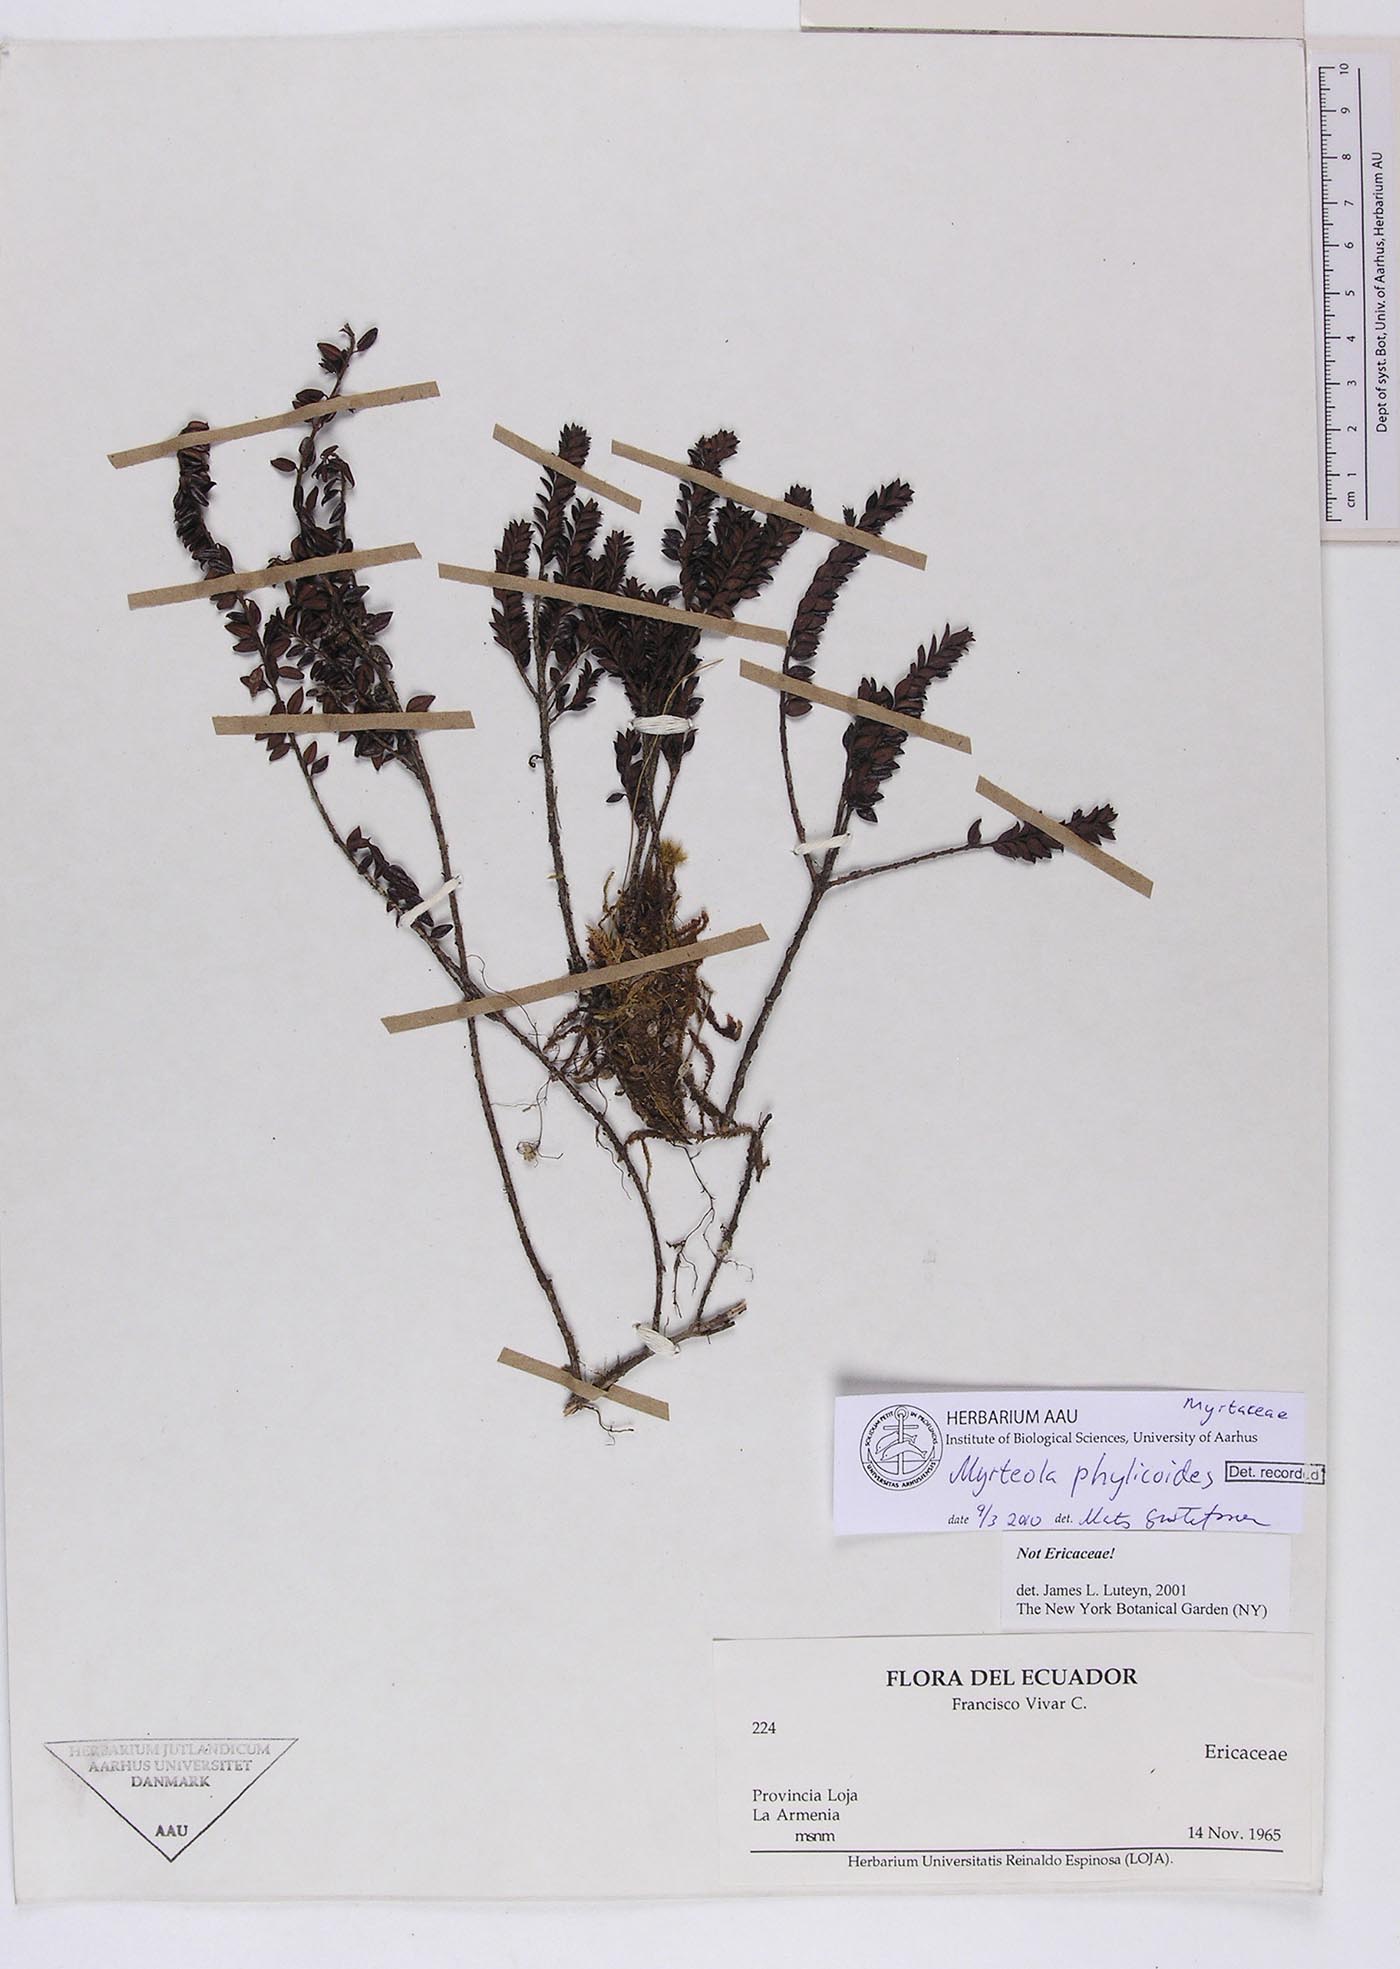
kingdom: Plantae
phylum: Tracheophyta
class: Magnoliopsida
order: Myrtales
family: Myrtaceae
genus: Myrteola
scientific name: Myrteola phylicoides
